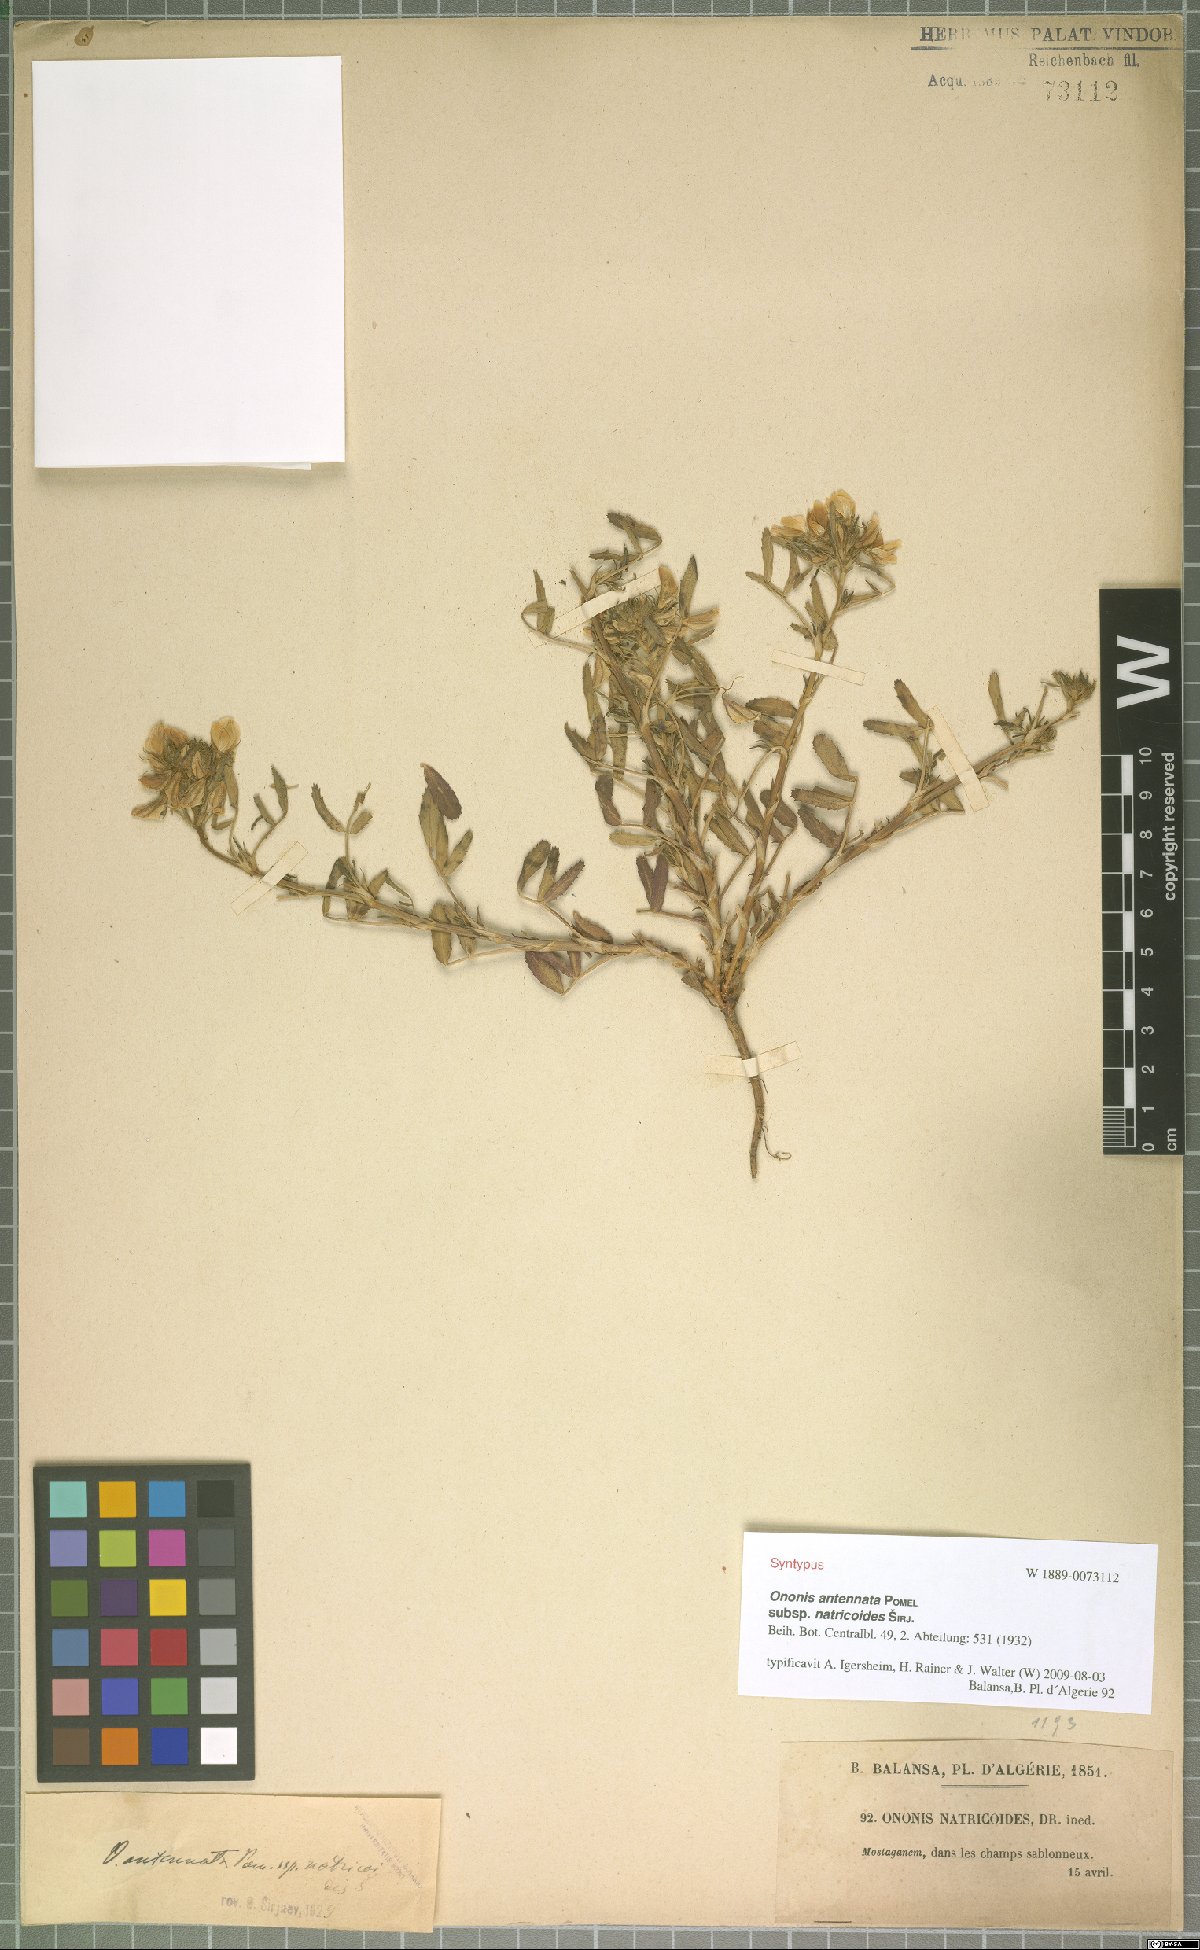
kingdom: Plantae
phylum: Tracheophyta
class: Magnoliopsida
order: Fabales
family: Fabaceae
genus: Ononis
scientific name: Ononis antennata
